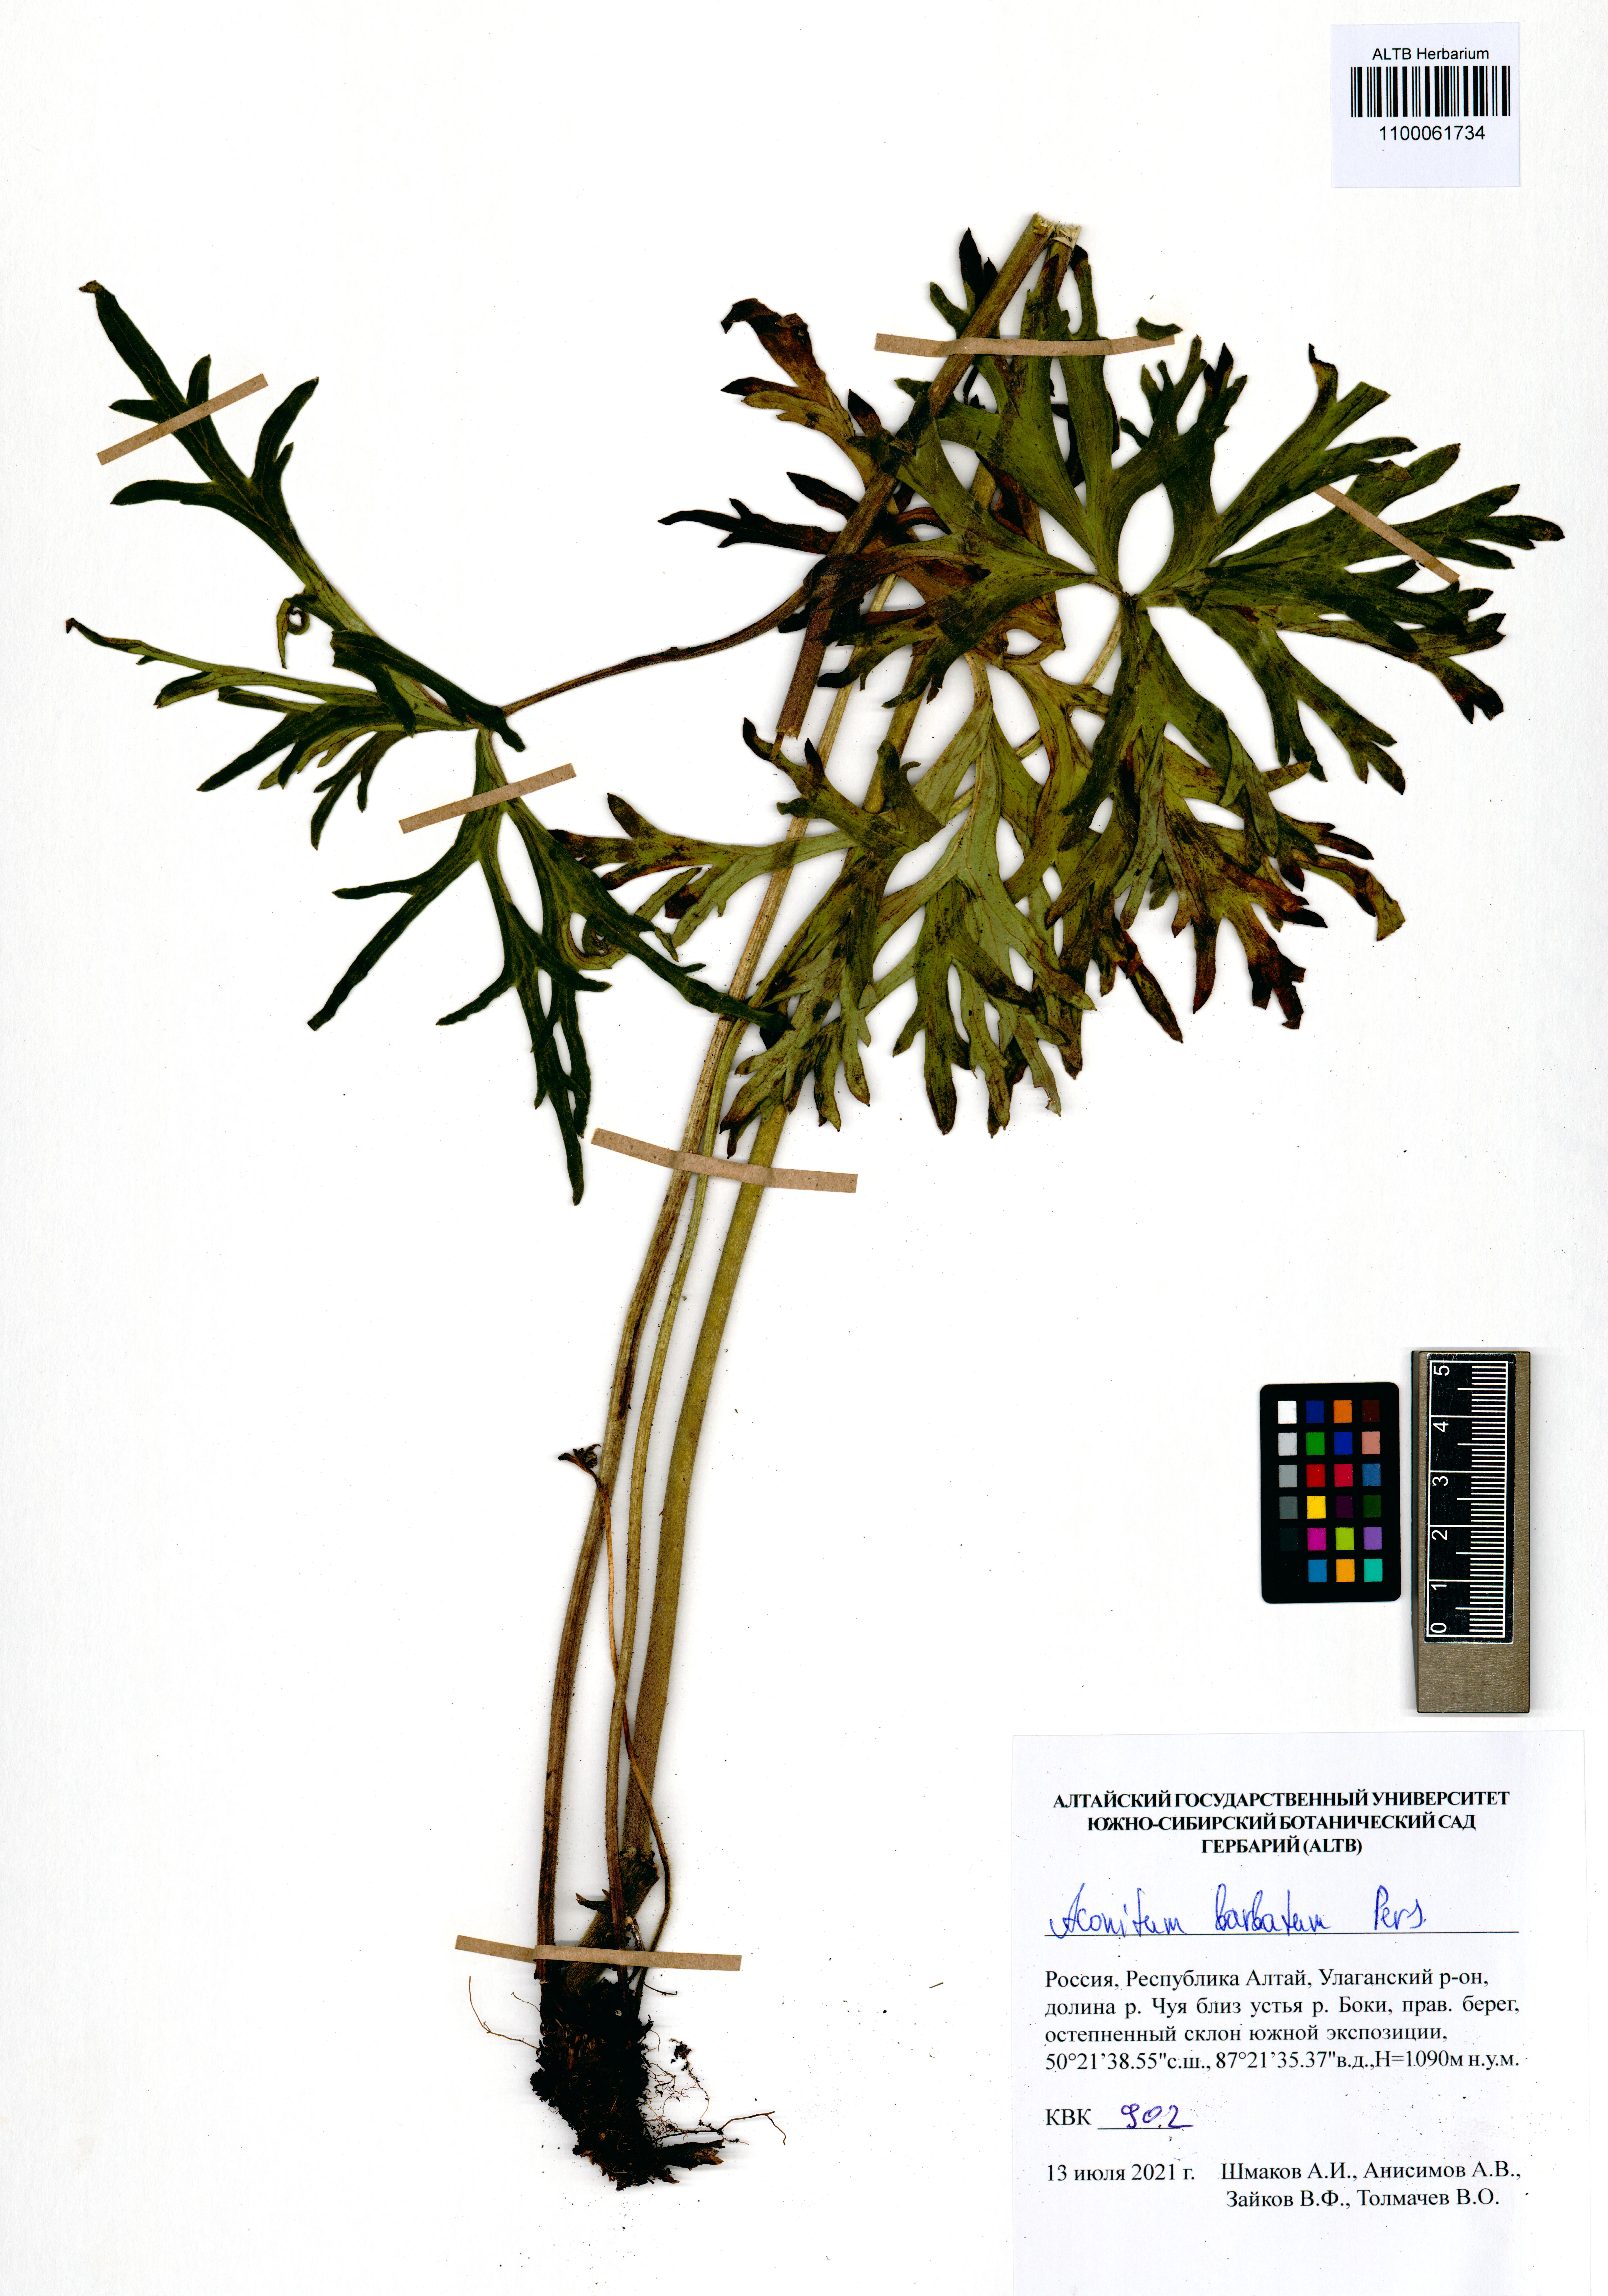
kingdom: Plantae
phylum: Tracheophyta
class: Magnoliopsida
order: Ranunculales
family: Ranunculaceae
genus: Aconitum
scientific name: Aconitum barbatum
